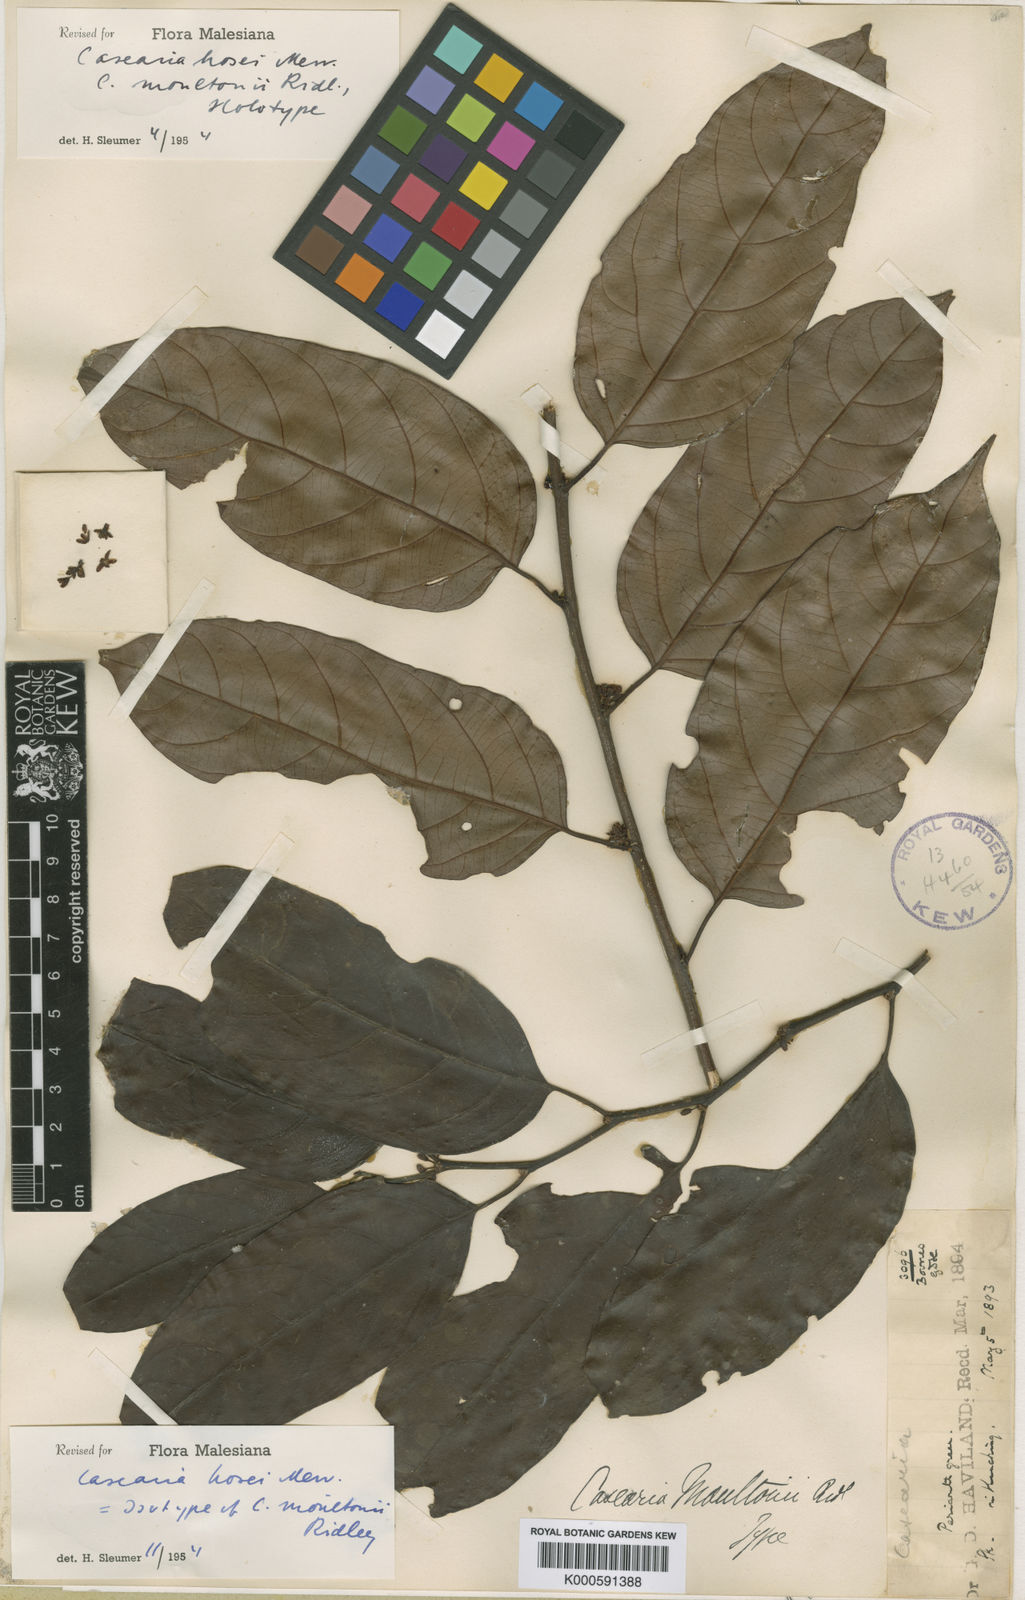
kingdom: Plantae
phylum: Tracheophyta
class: Magnoliopsida
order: Malpighiales
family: Salicaceae
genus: Casearia
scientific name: Casearia hosei
